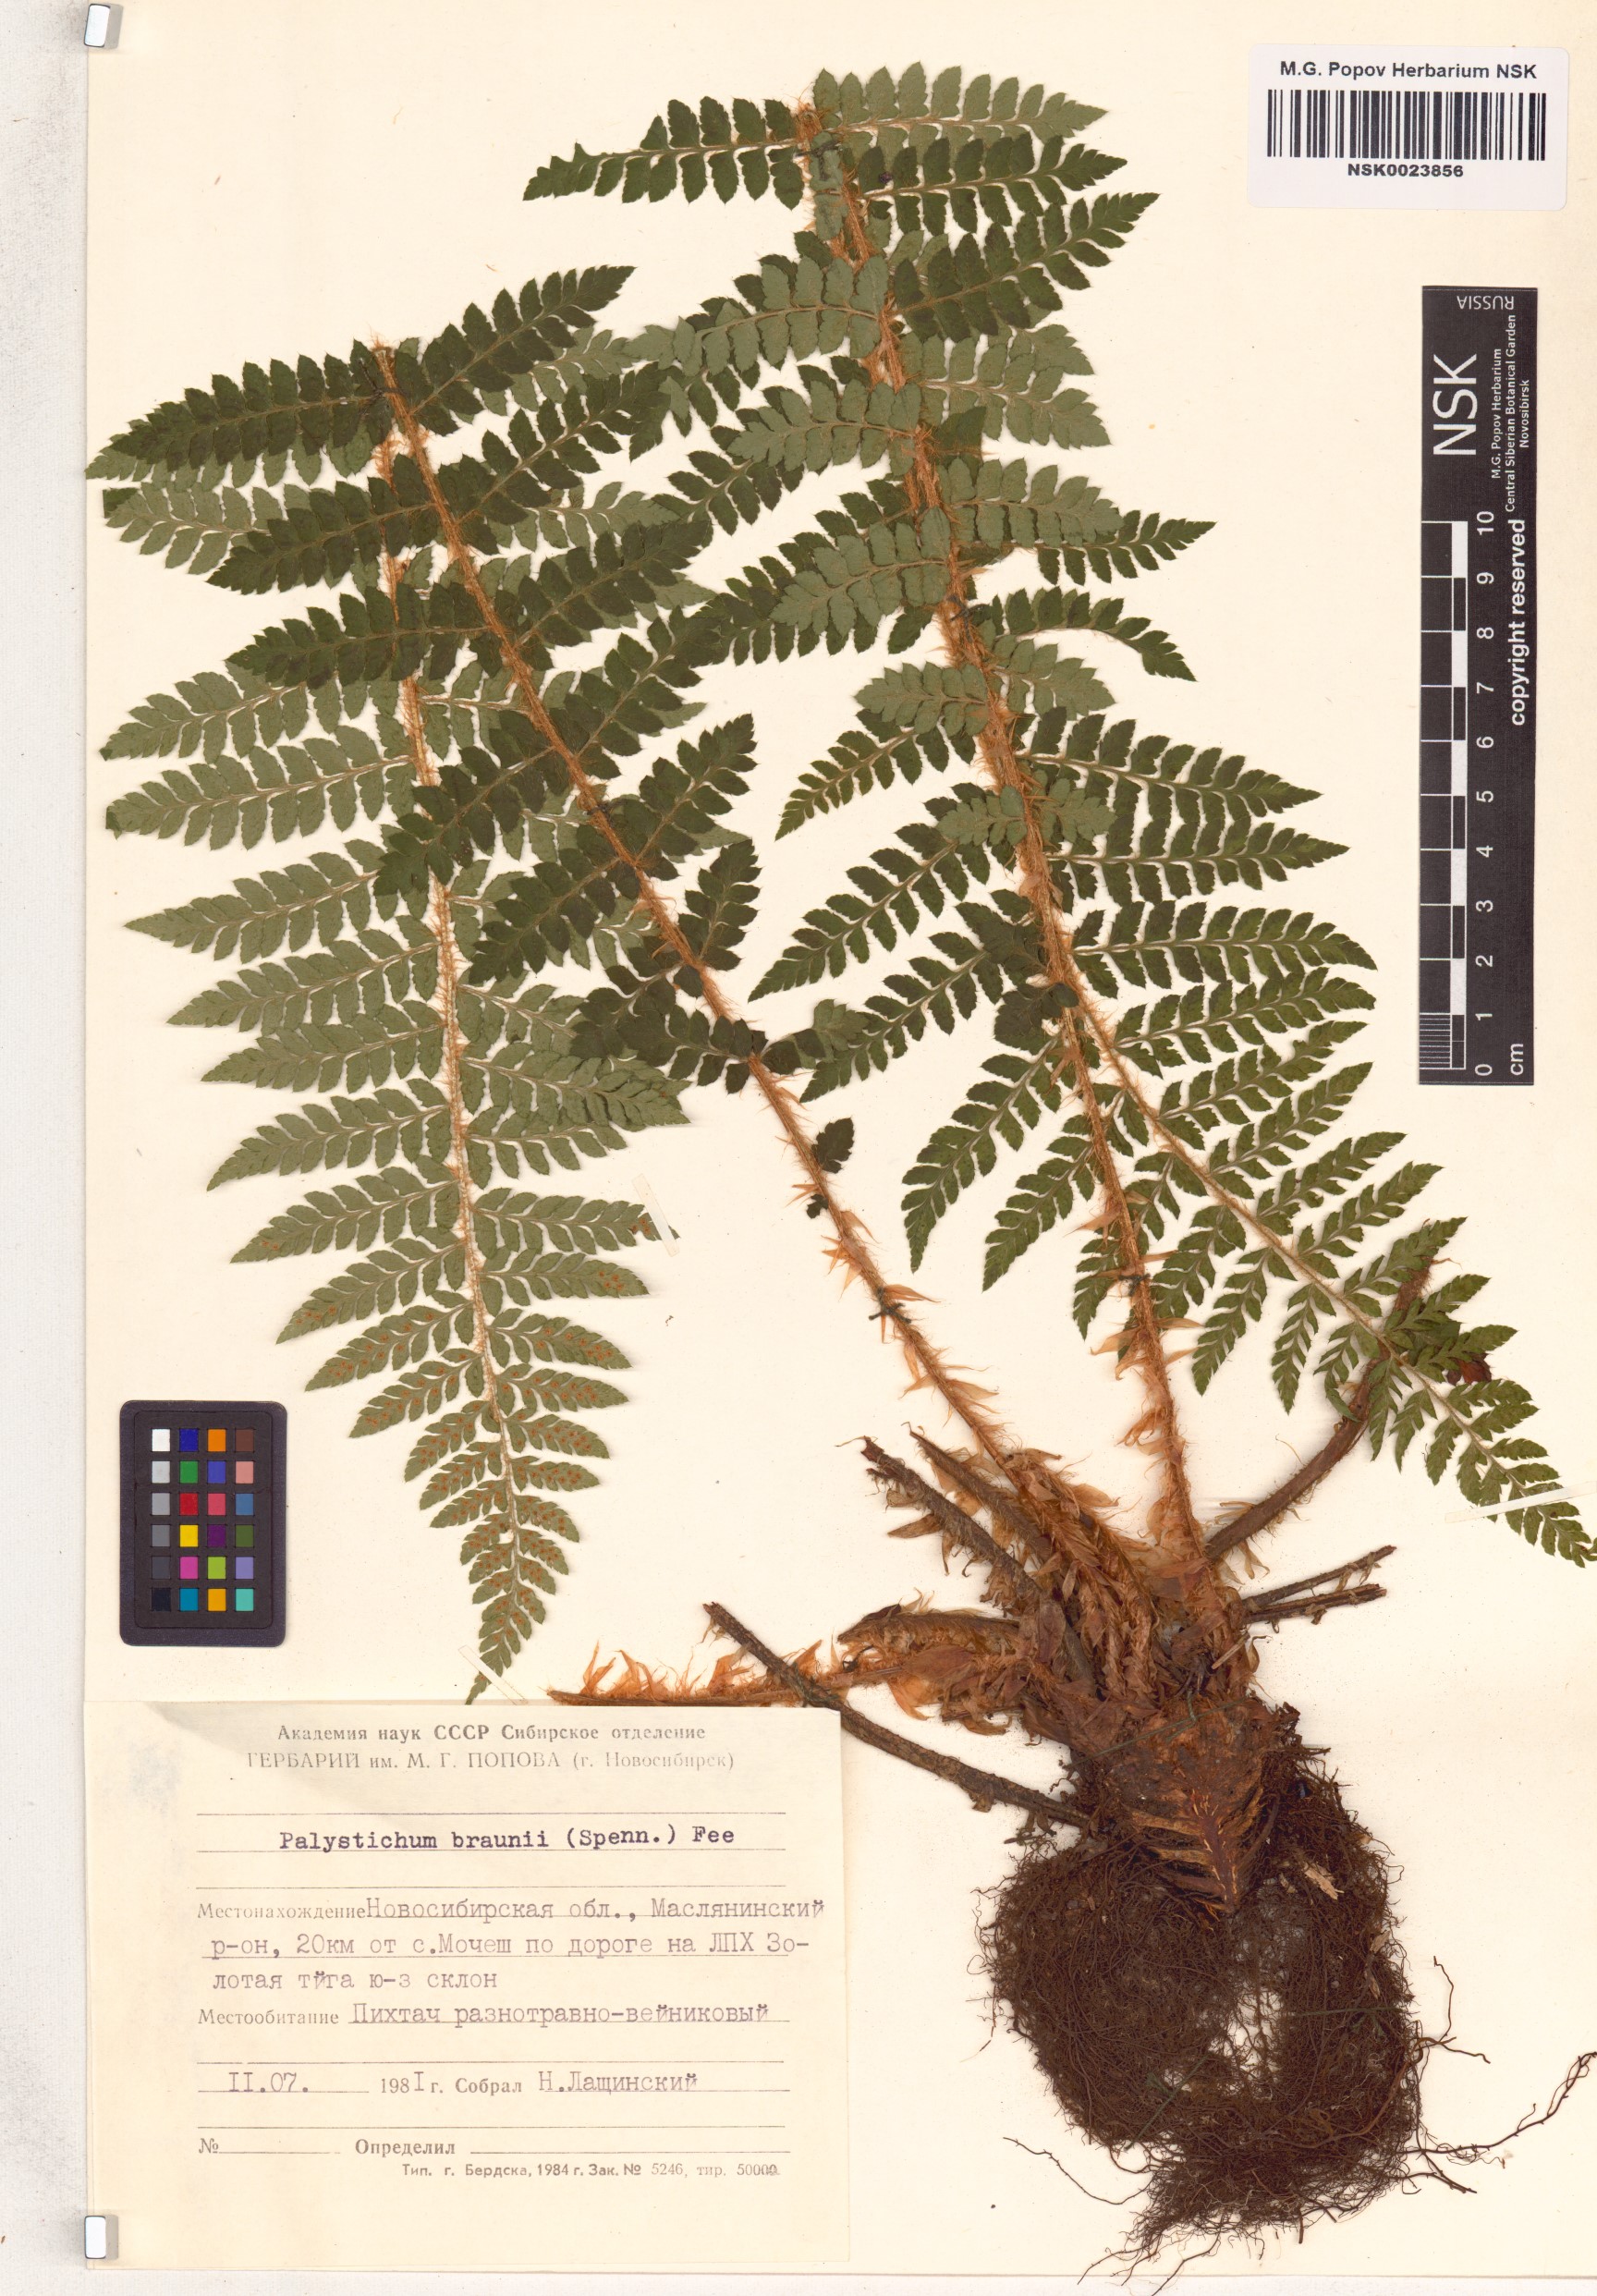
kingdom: Plantae
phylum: Tracheophyta
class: Polypodiopsida
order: Polypodiales
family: Dryopteridaceae
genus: Polystichum
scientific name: Polystichum braunii
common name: Braun's holly fern
